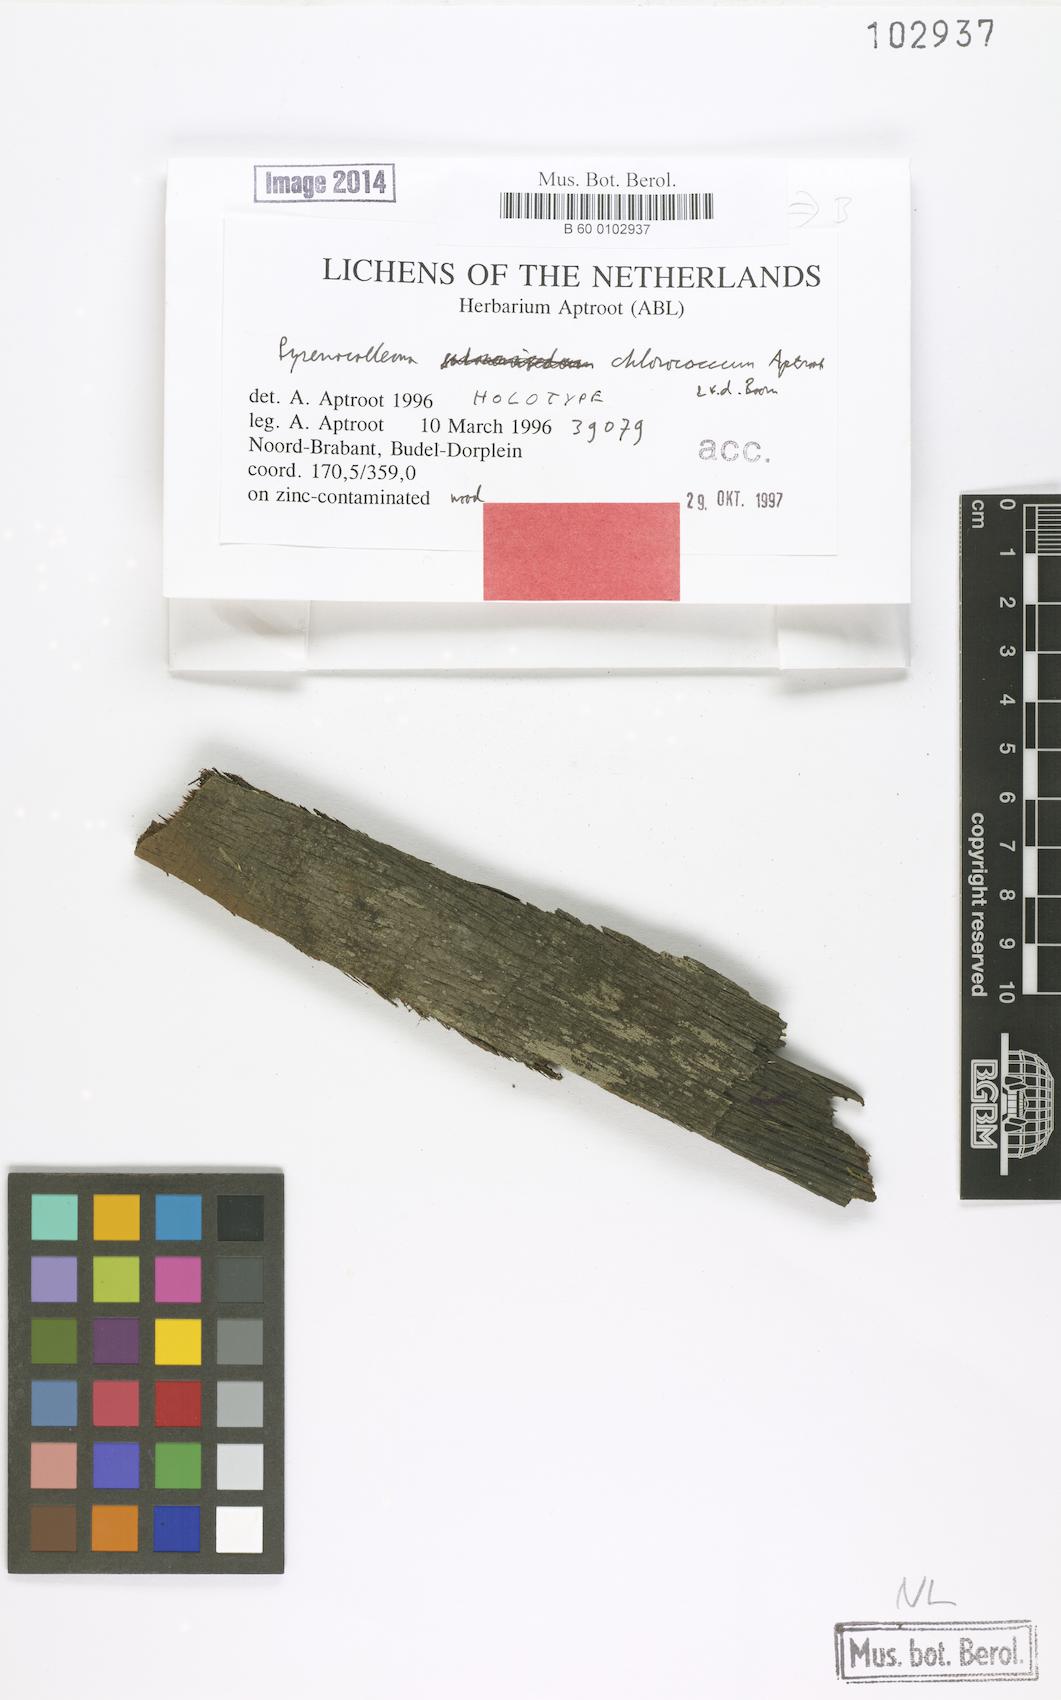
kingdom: Fungi
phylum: Ascomycota
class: Dothideomycetes
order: Collemopsidiales
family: Xanthopyreniaceae
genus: Collemopsidium
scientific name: Collemopsidium chlorococcum
